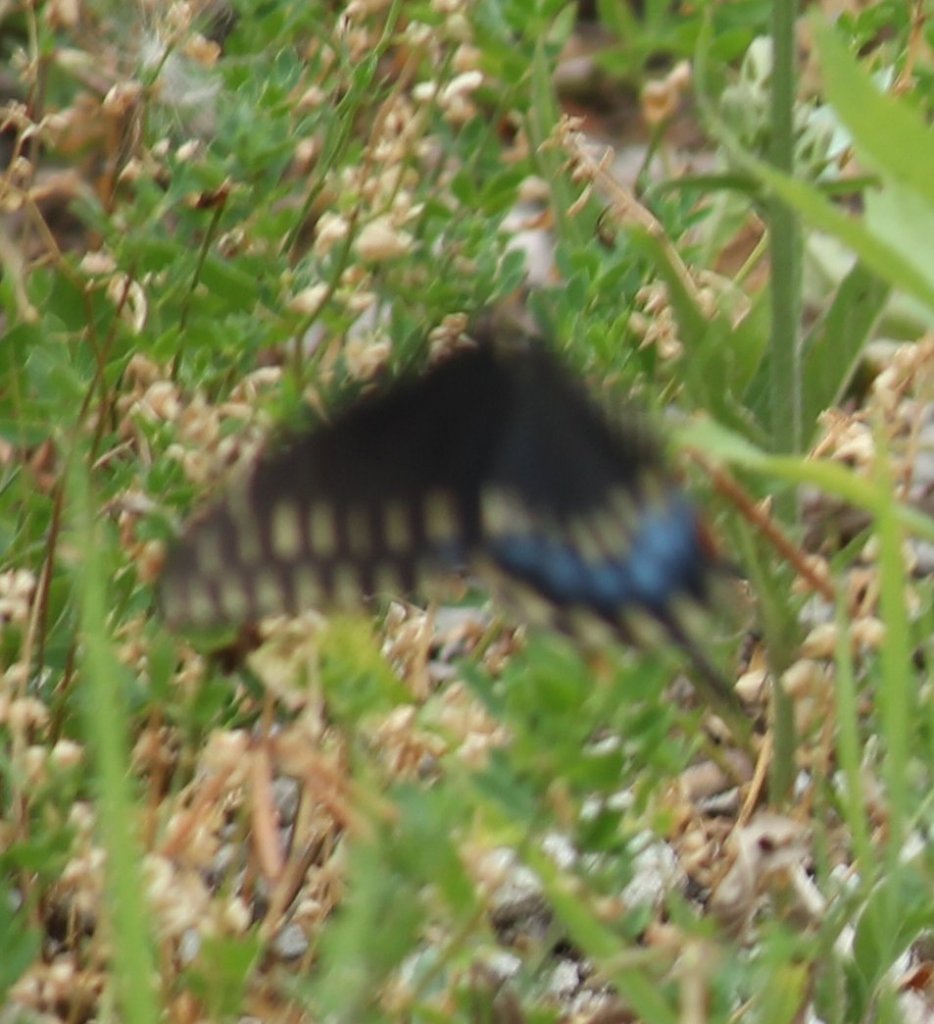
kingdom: Animalia
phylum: Arthropoda
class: Insecta
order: Lepidoptera
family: Papilionidae
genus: Papilio
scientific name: Papilio polyxenes
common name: Black Swallowtail
